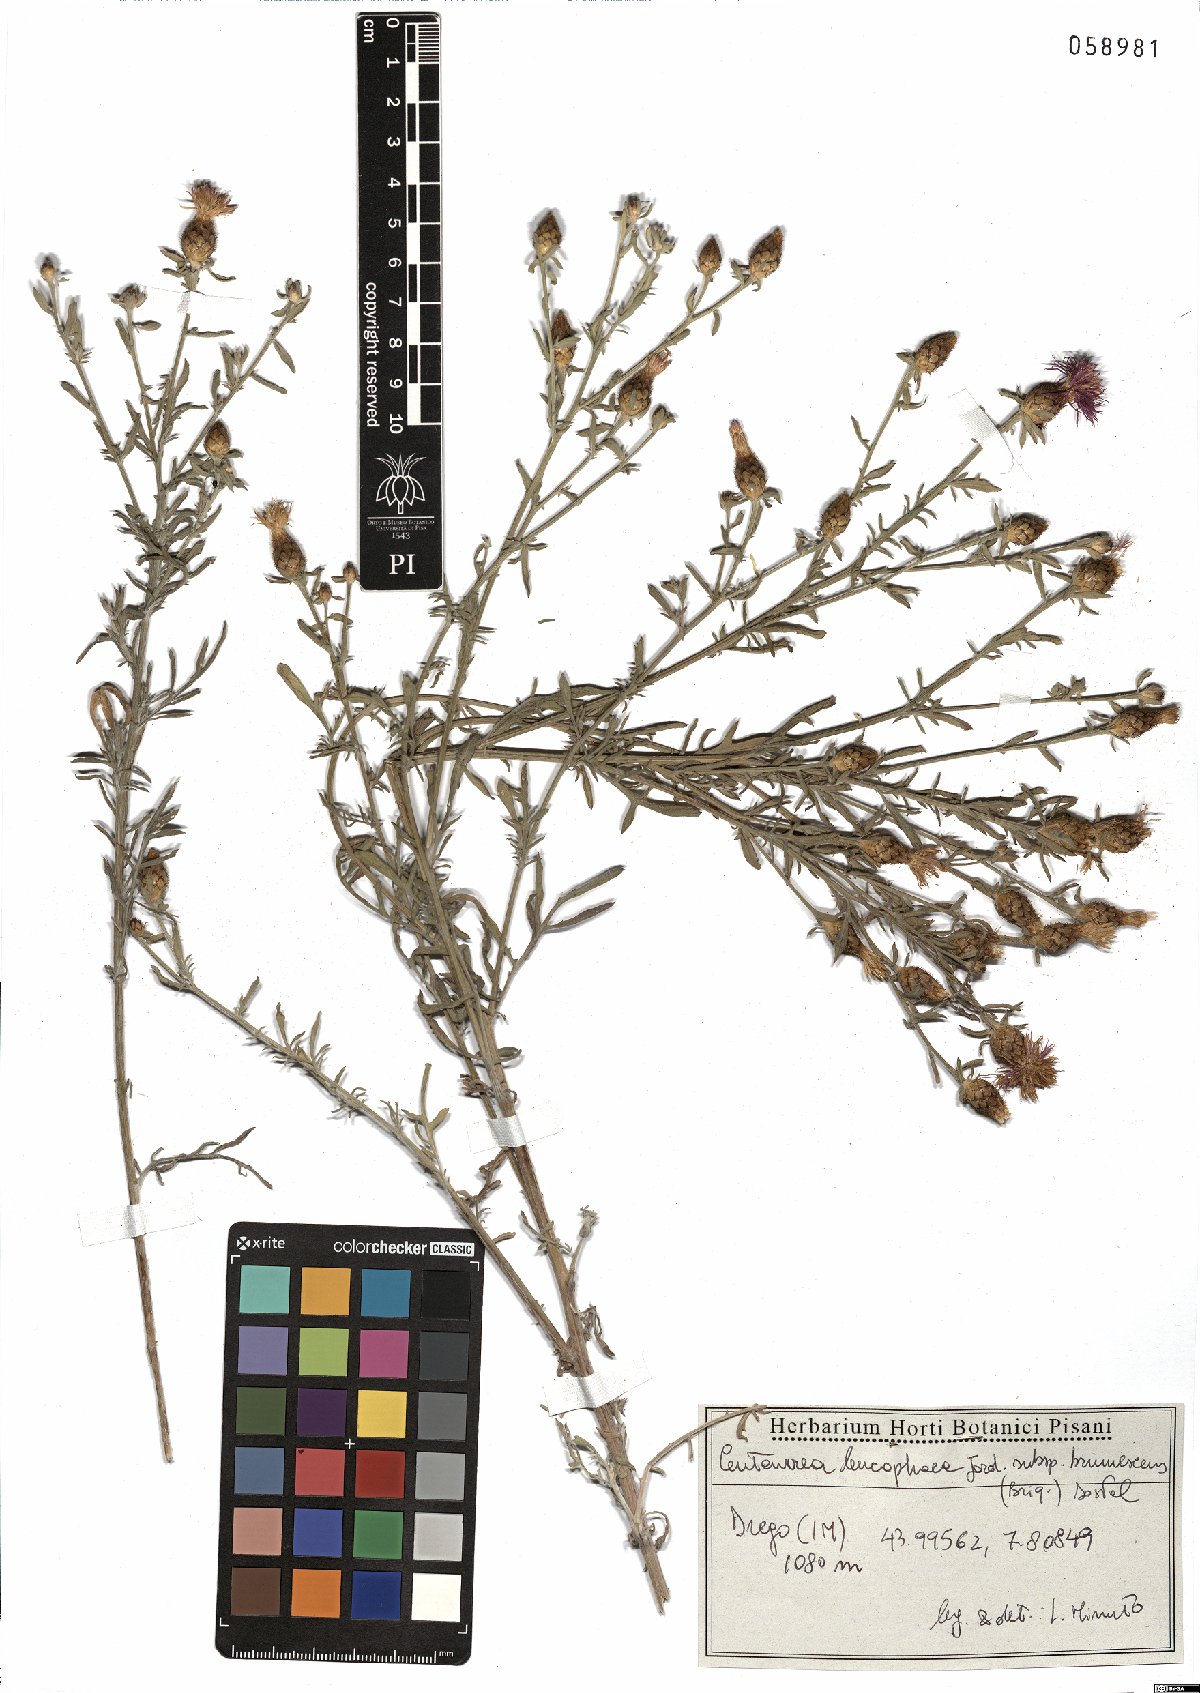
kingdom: Plantae
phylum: Tracheophyta
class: Magnoliopsida
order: Asterales
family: Asteraceae
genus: Centaurea
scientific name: Centaurea leucophaea
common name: Whitish-leaved knapweed
